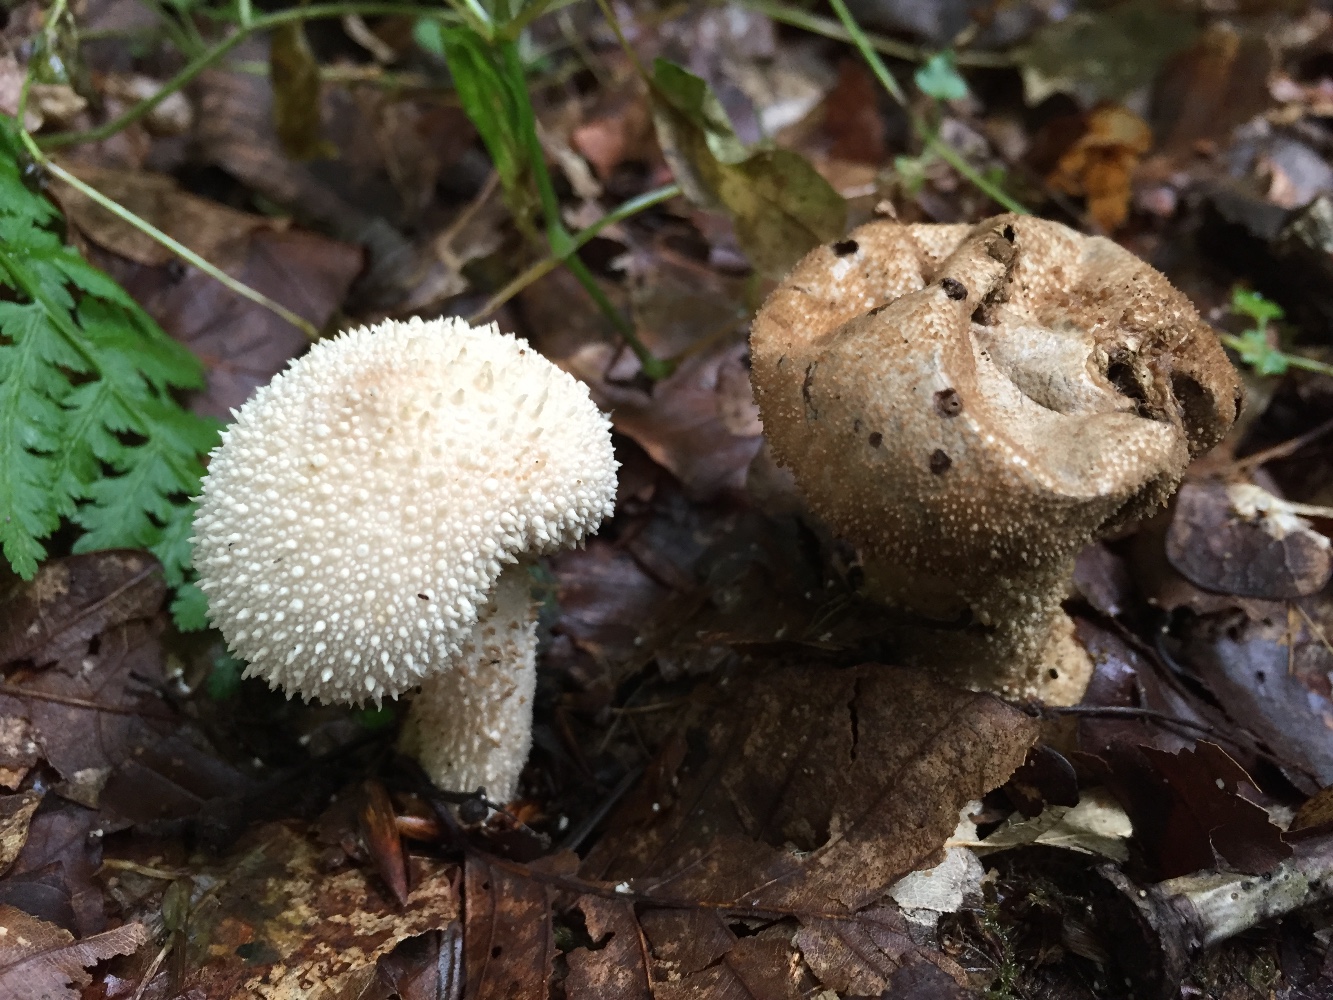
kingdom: Fungi
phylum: Basidiomycota
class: Agaricomycetes
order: Agaricales
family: Lycoperdaceae
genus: Lycoperdon
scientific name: Lycoperdon perlatum
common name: krystal-støvbold
